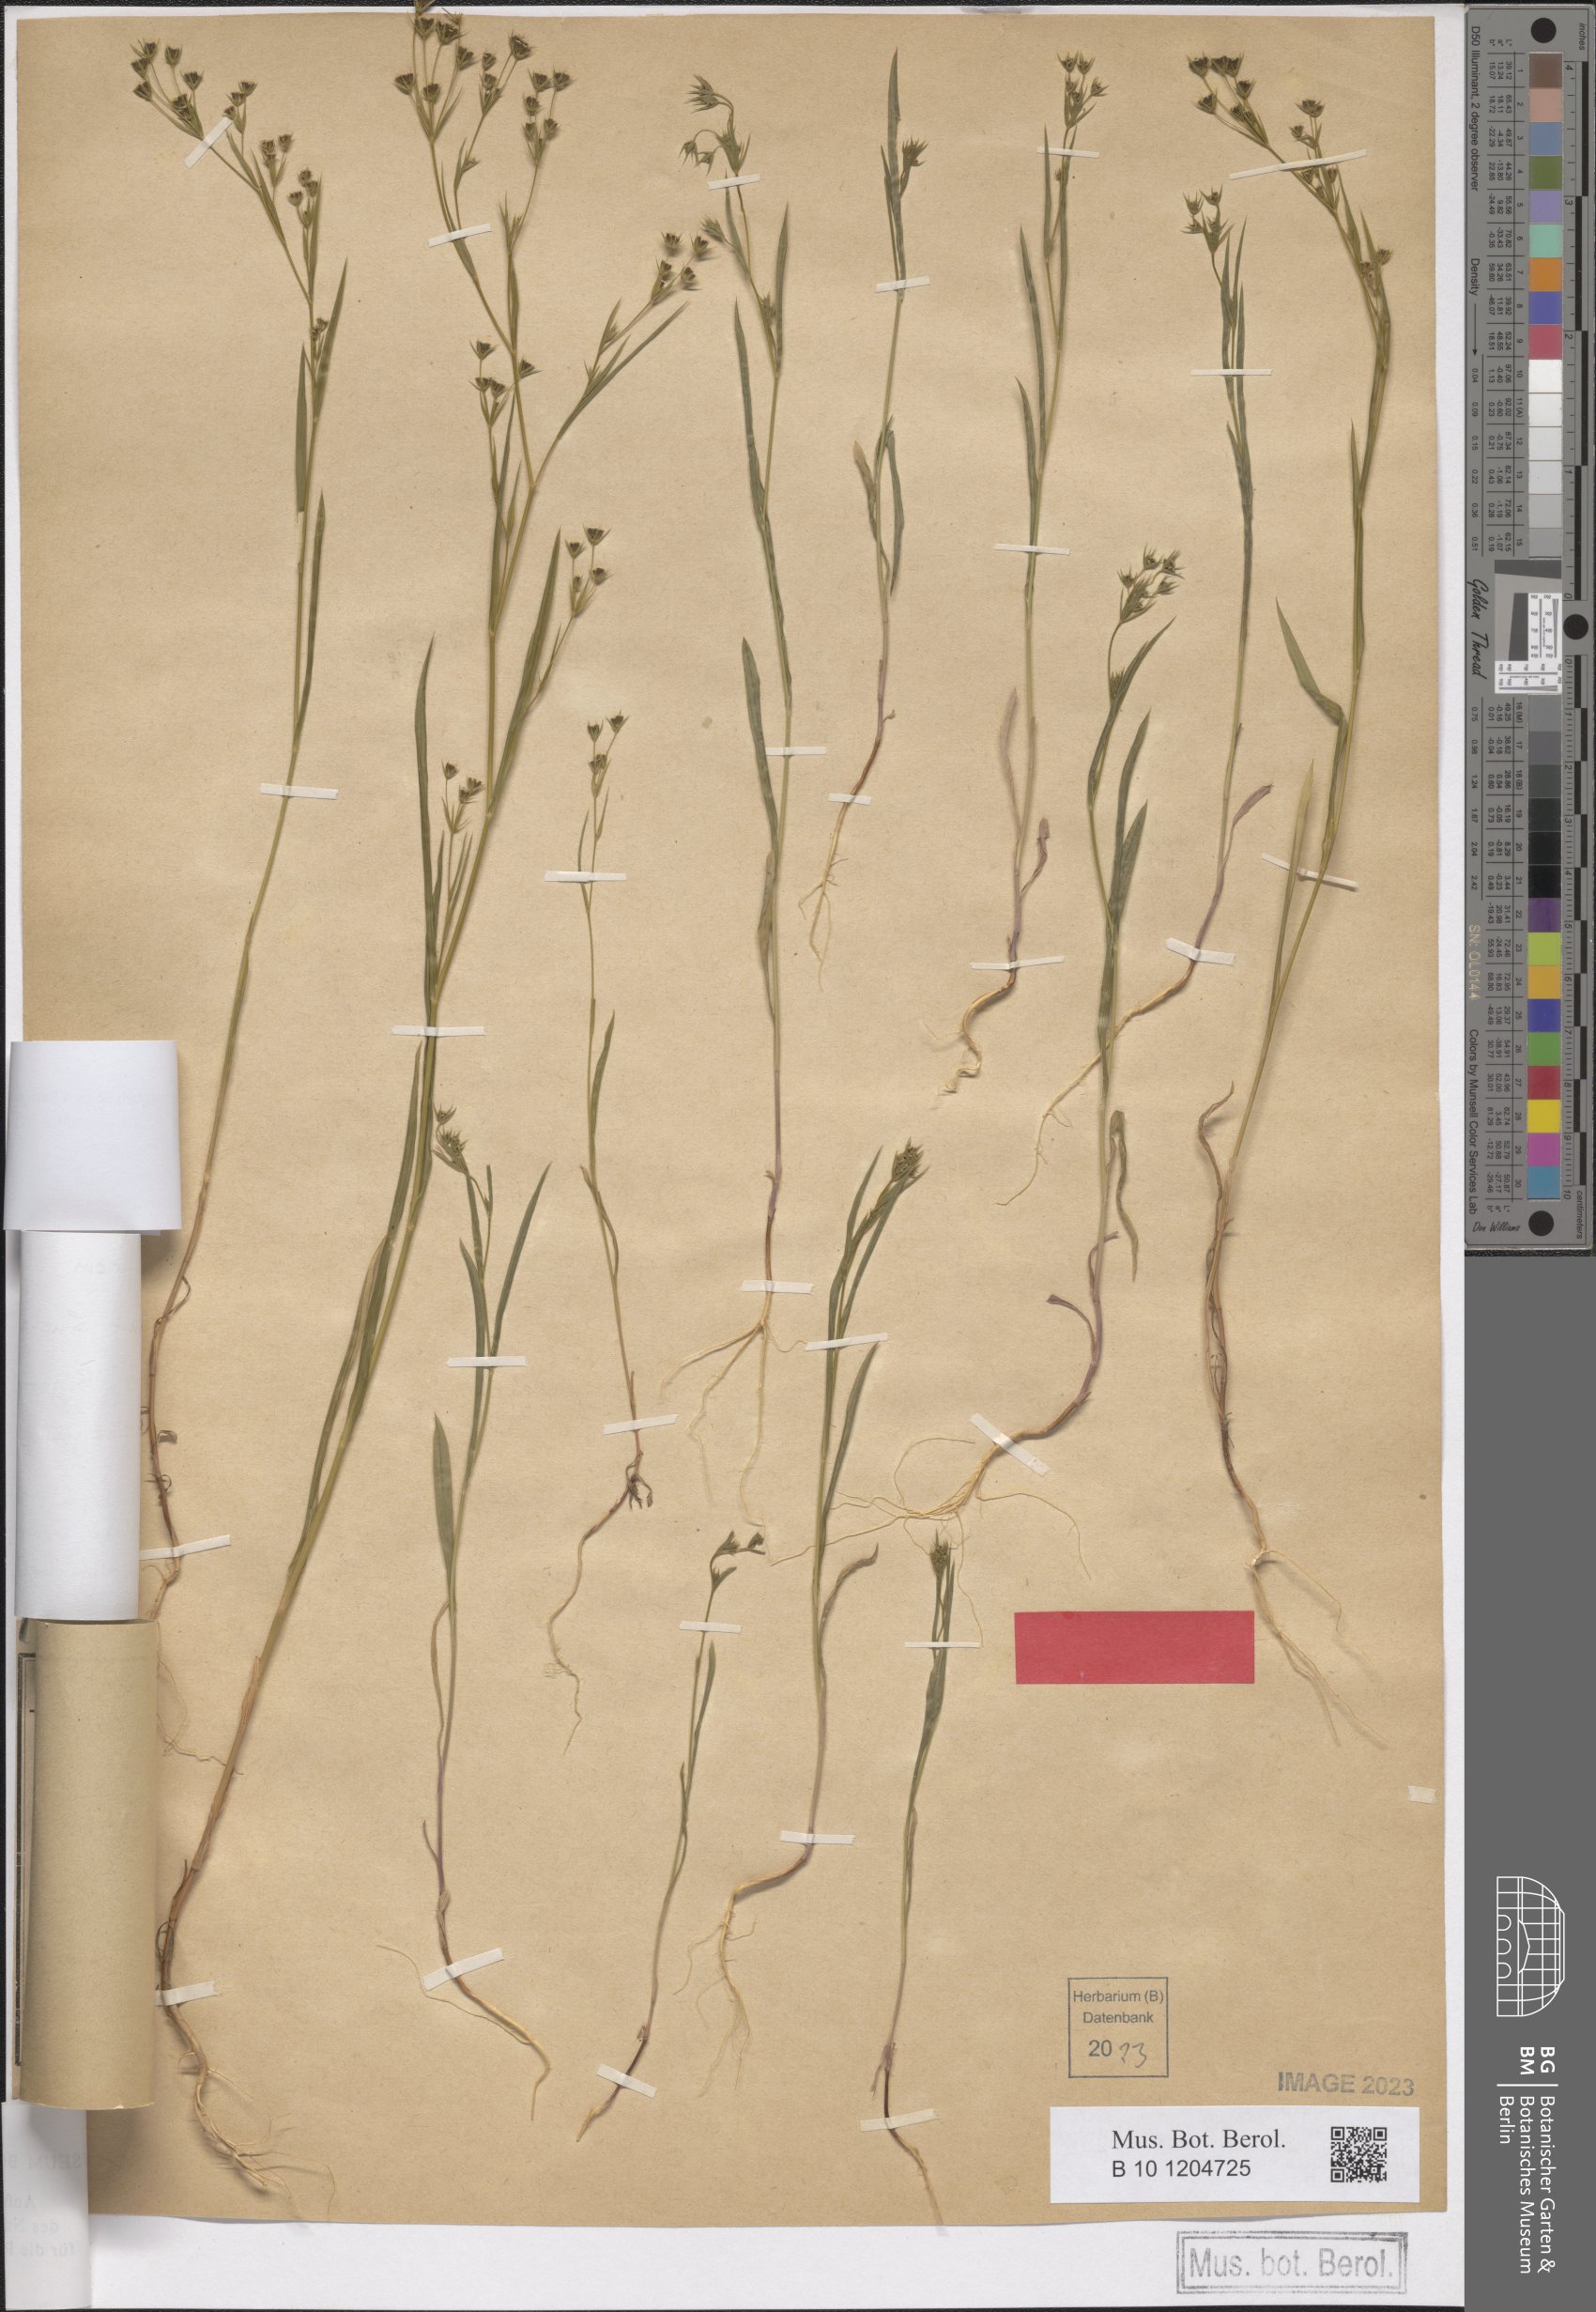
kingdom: Plantae
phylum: Tracheophyta
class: Magnoliopsida
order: Apiales
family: Apiaceae
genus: Bupleurum
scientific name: Bupleurum gerardi
